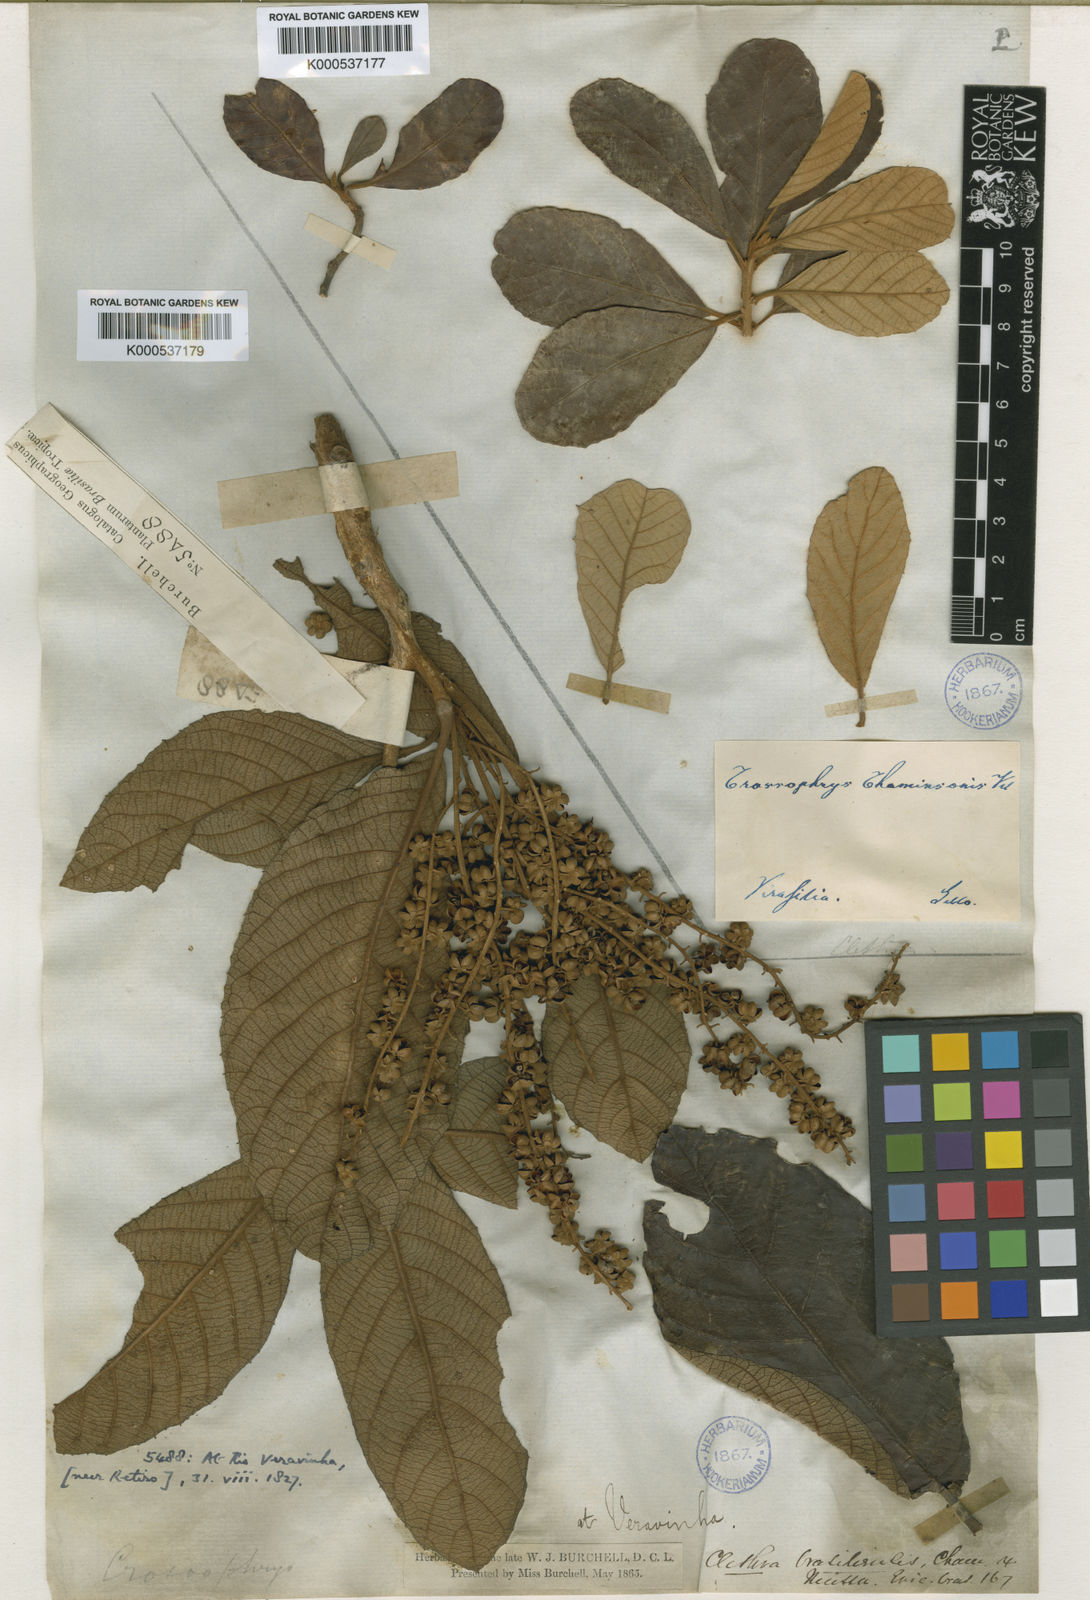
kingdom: Plantae
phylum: Tracheophyta
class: Magnoliopsida
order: Ericales
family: Clethraceae
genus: Clethra
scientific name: Clethra scabra
